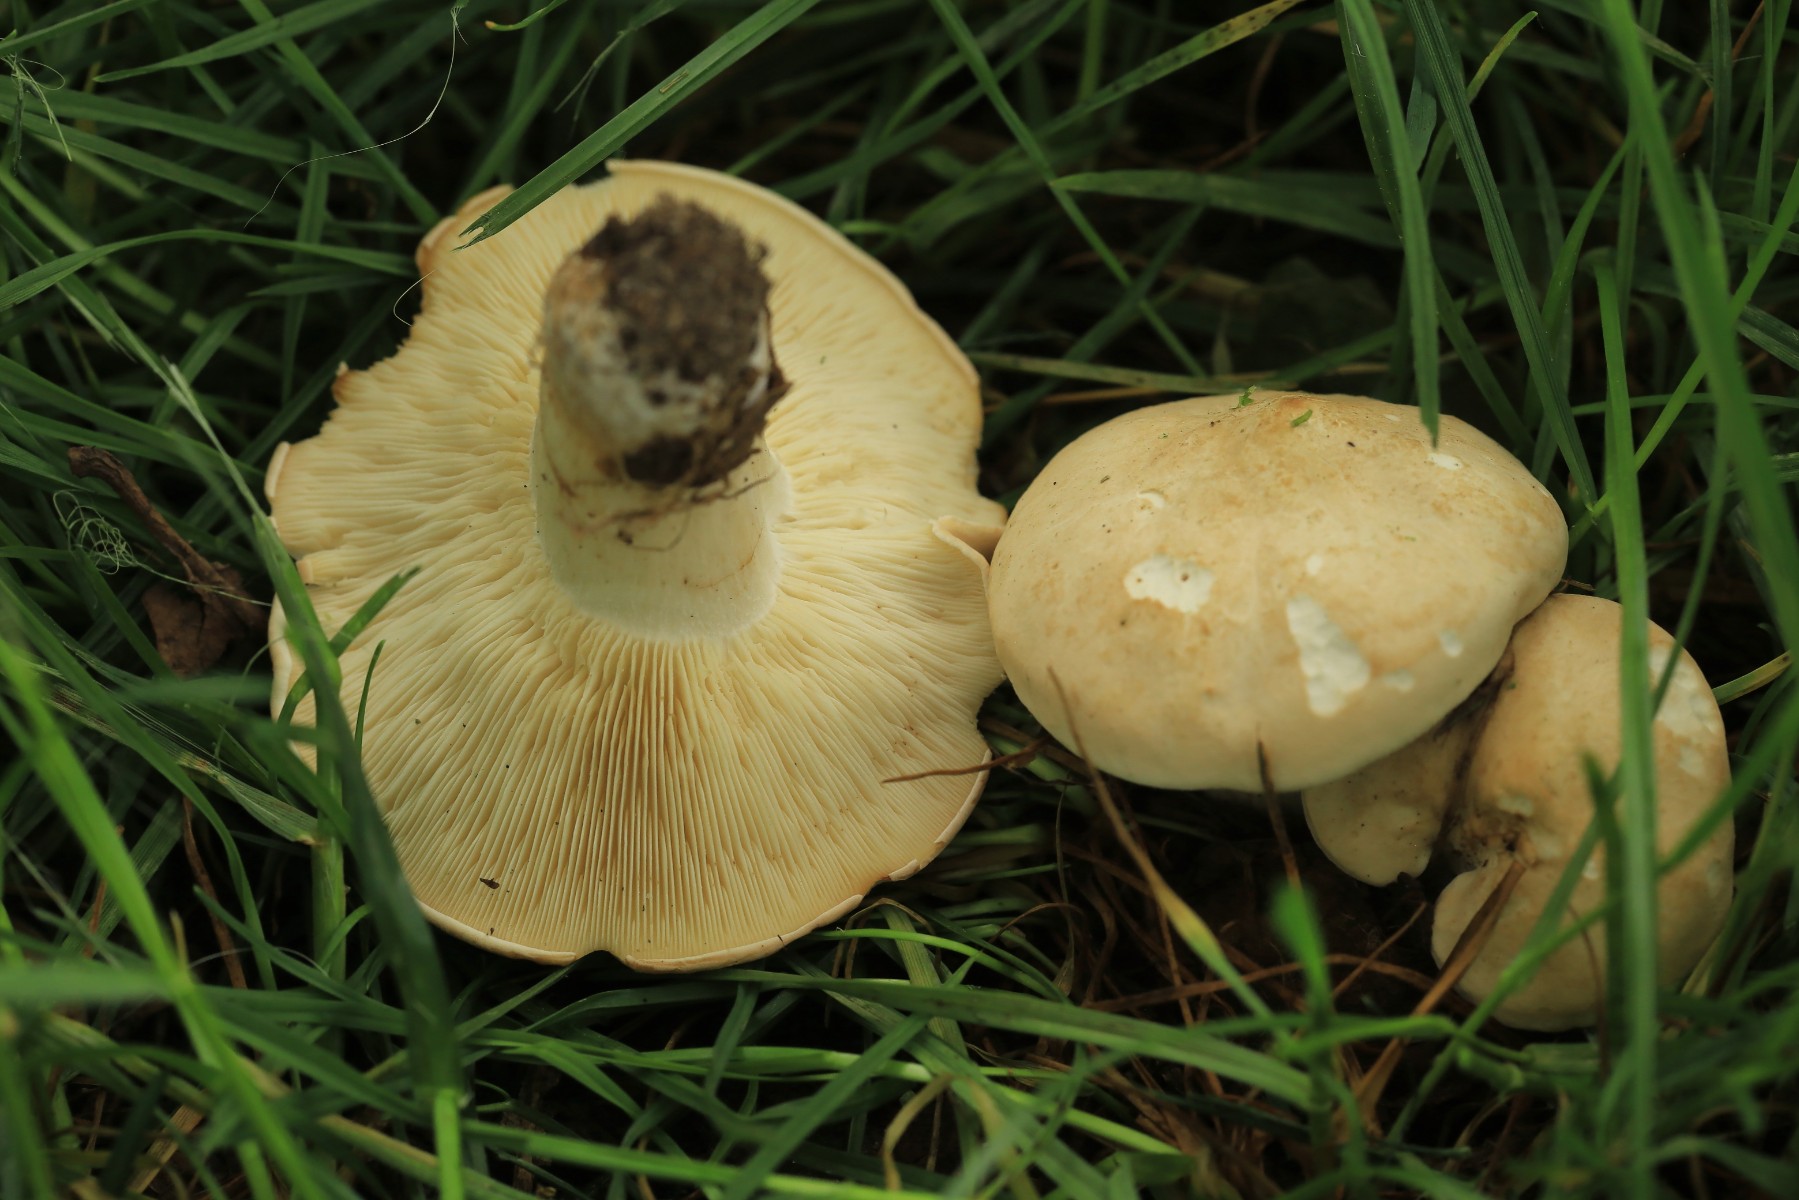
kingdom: Fungi
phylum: Basidiomycota
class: Agaricomycetes
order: Agaricales
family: Lyophyllaceae
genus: Calocybe
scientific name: Calocybe gambosa
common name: vårmusseron
